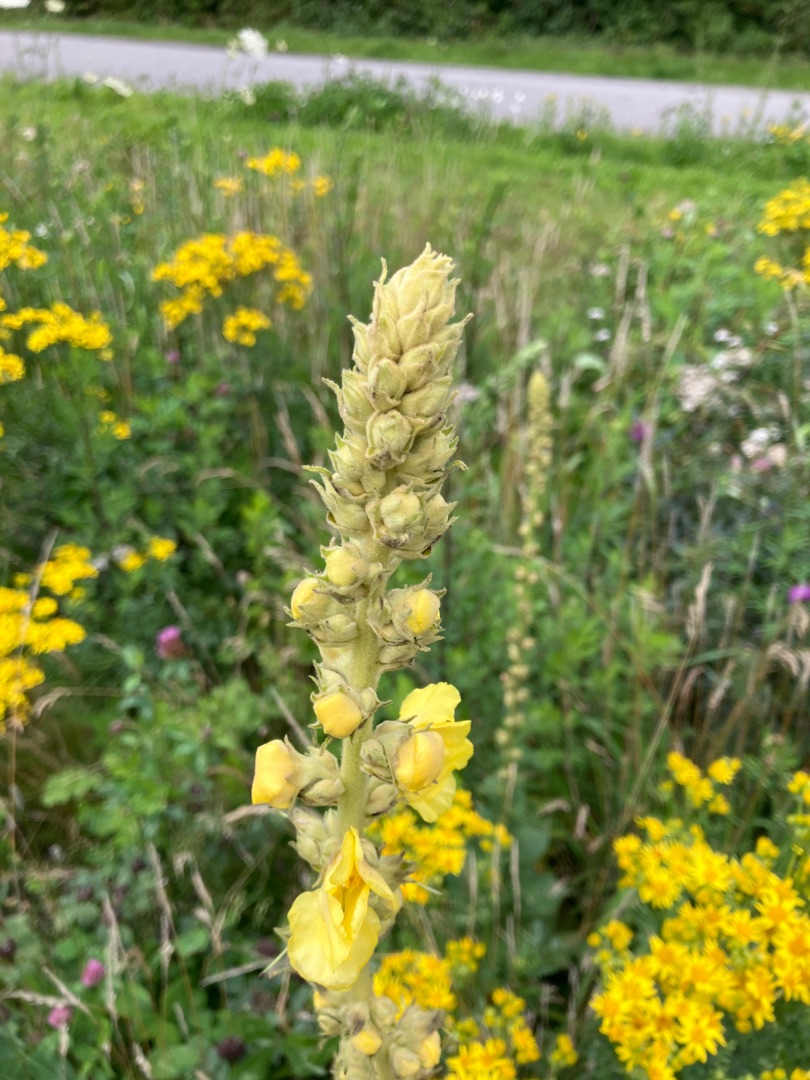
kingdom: Plantae
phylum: Tracheophyta
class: Magnoliopsida
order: Lamiales
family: Scrophulariaceae
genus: Verbascum
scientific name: Verbascum
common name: Kongelysslægten
